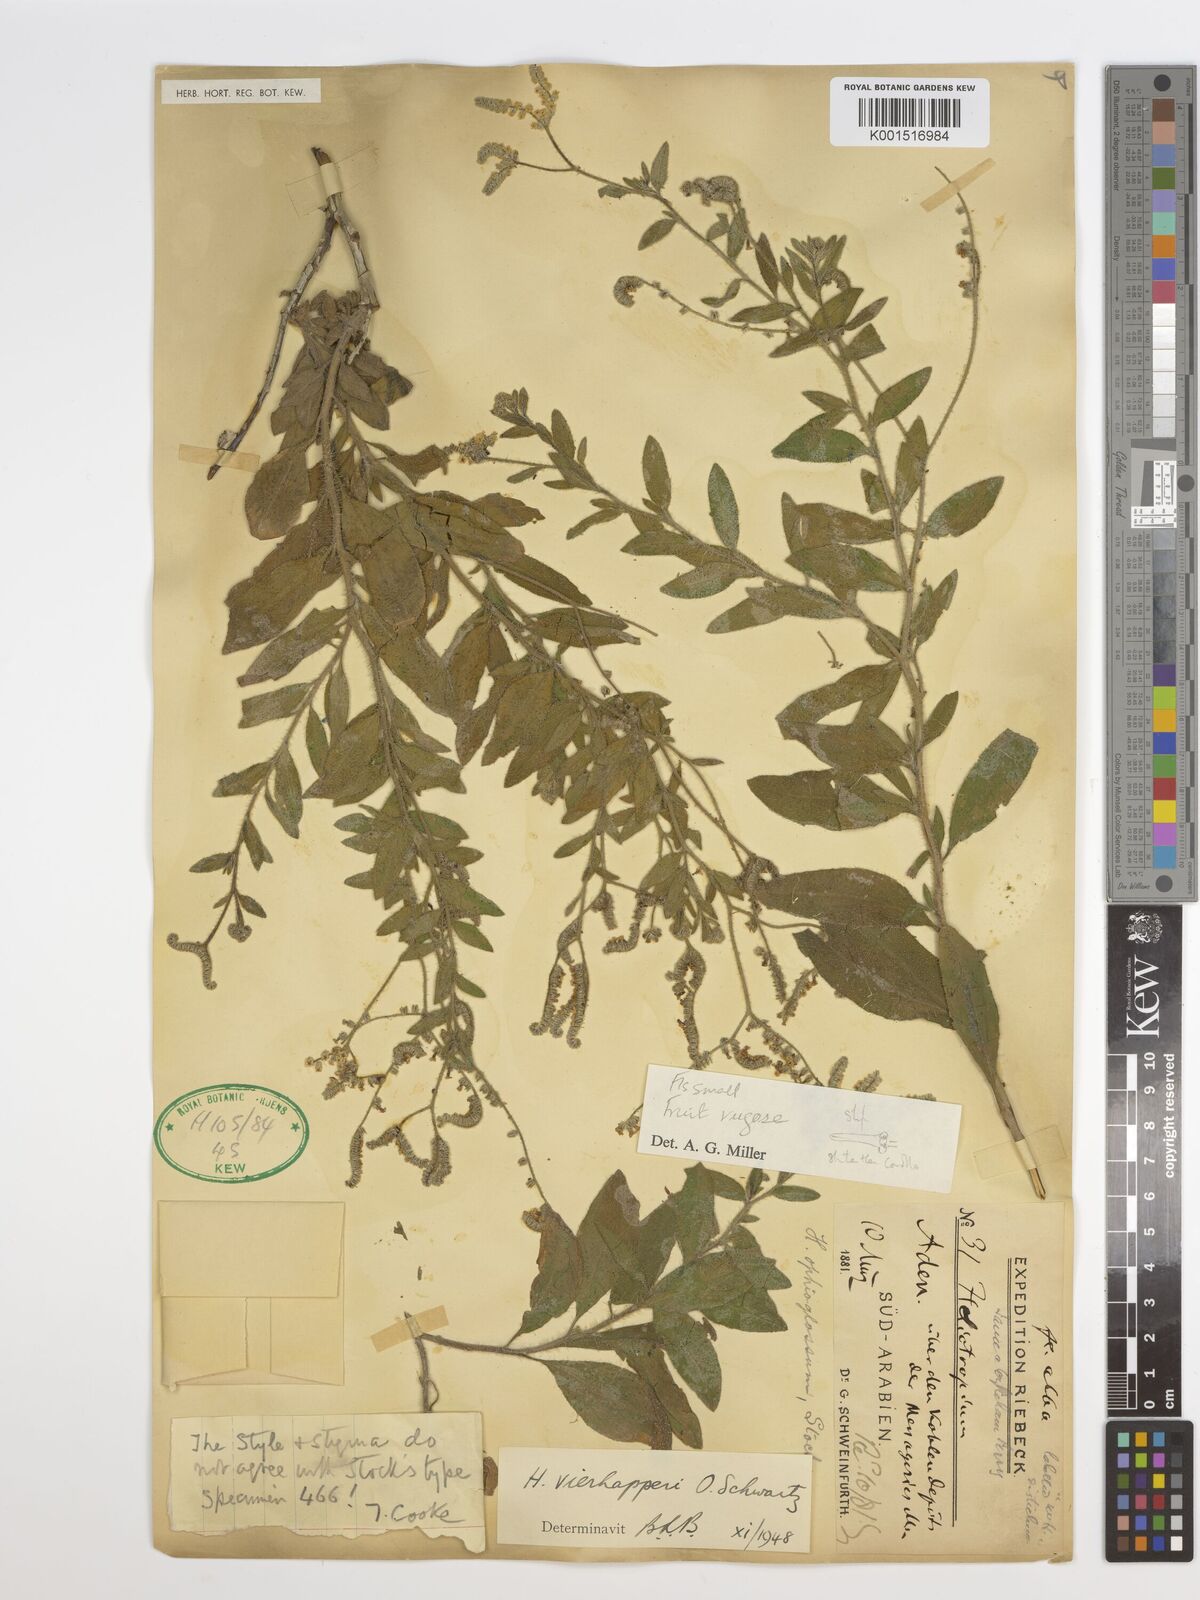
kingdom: Plantae
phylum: Tracheophyta
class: Magnoliopsida
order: Boraginales
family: Heliotropiaceae
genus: Heliotropium
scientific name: Heliotropium ophioglossum
